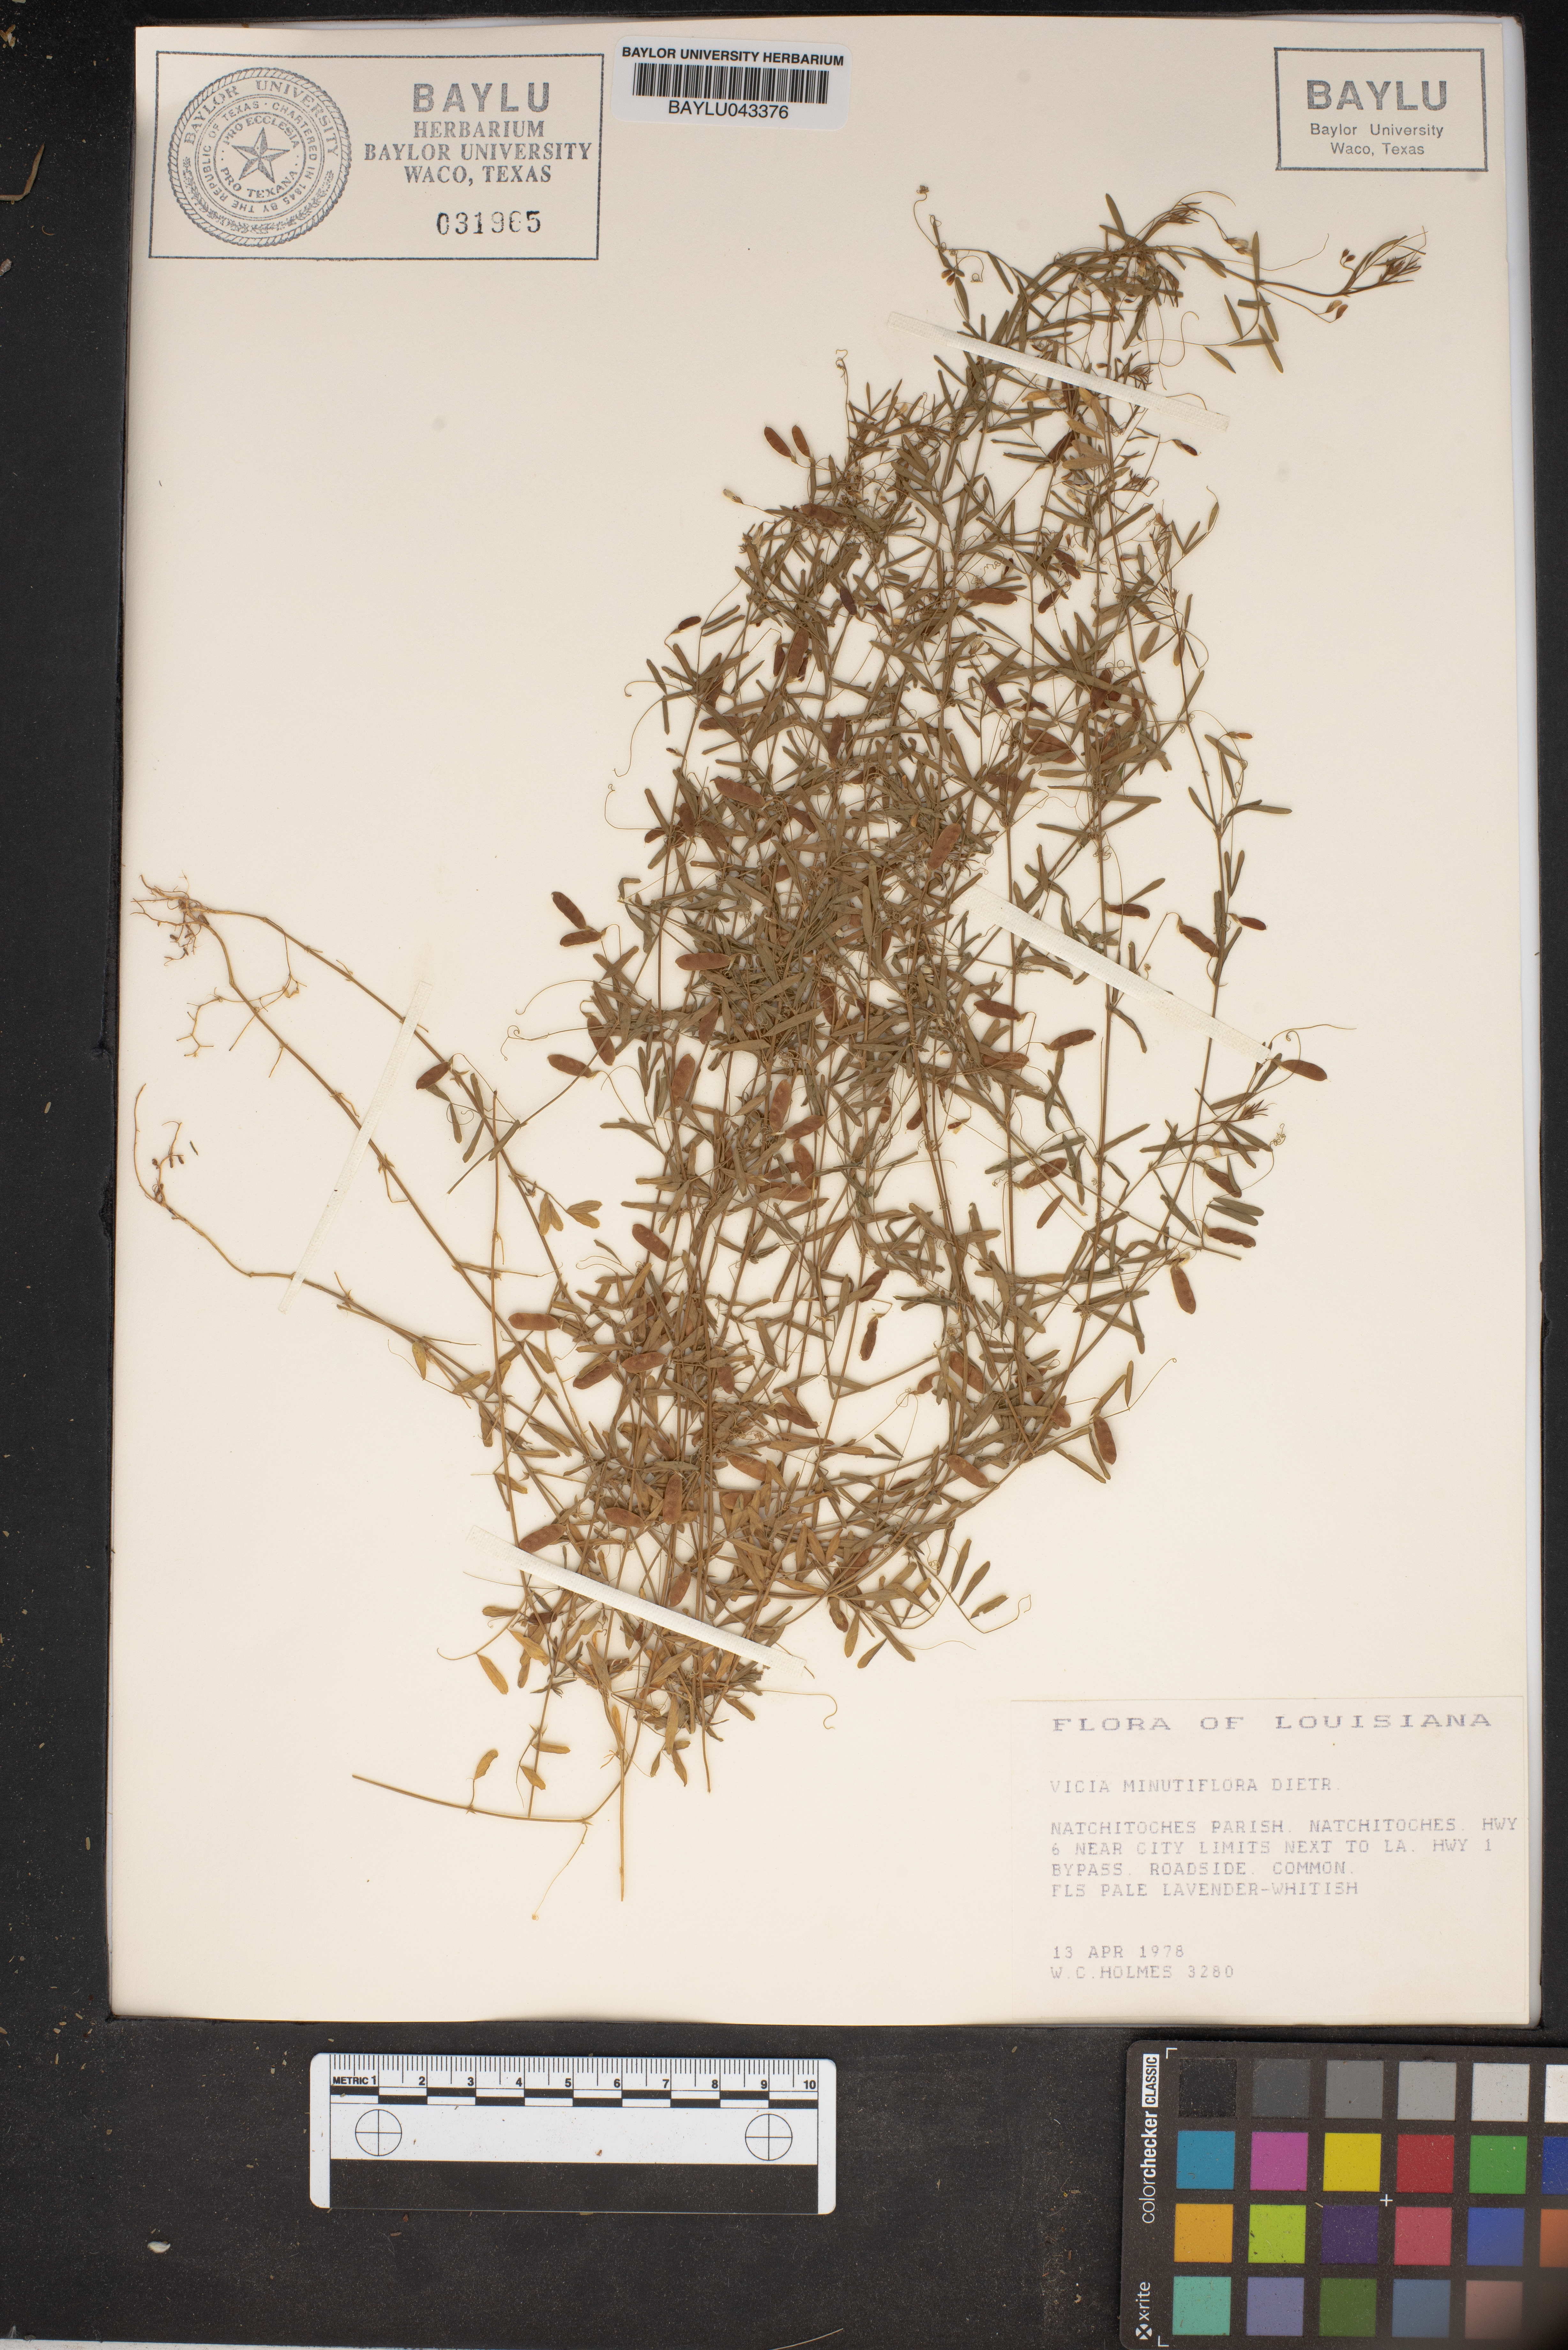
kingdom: Plantae
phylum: Tracheophyta
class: Magnoliopsida
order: Fabales
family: Fabaceae
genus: Vicia
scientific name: Vicia minutiflora
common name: Pygmy-flower vetch
